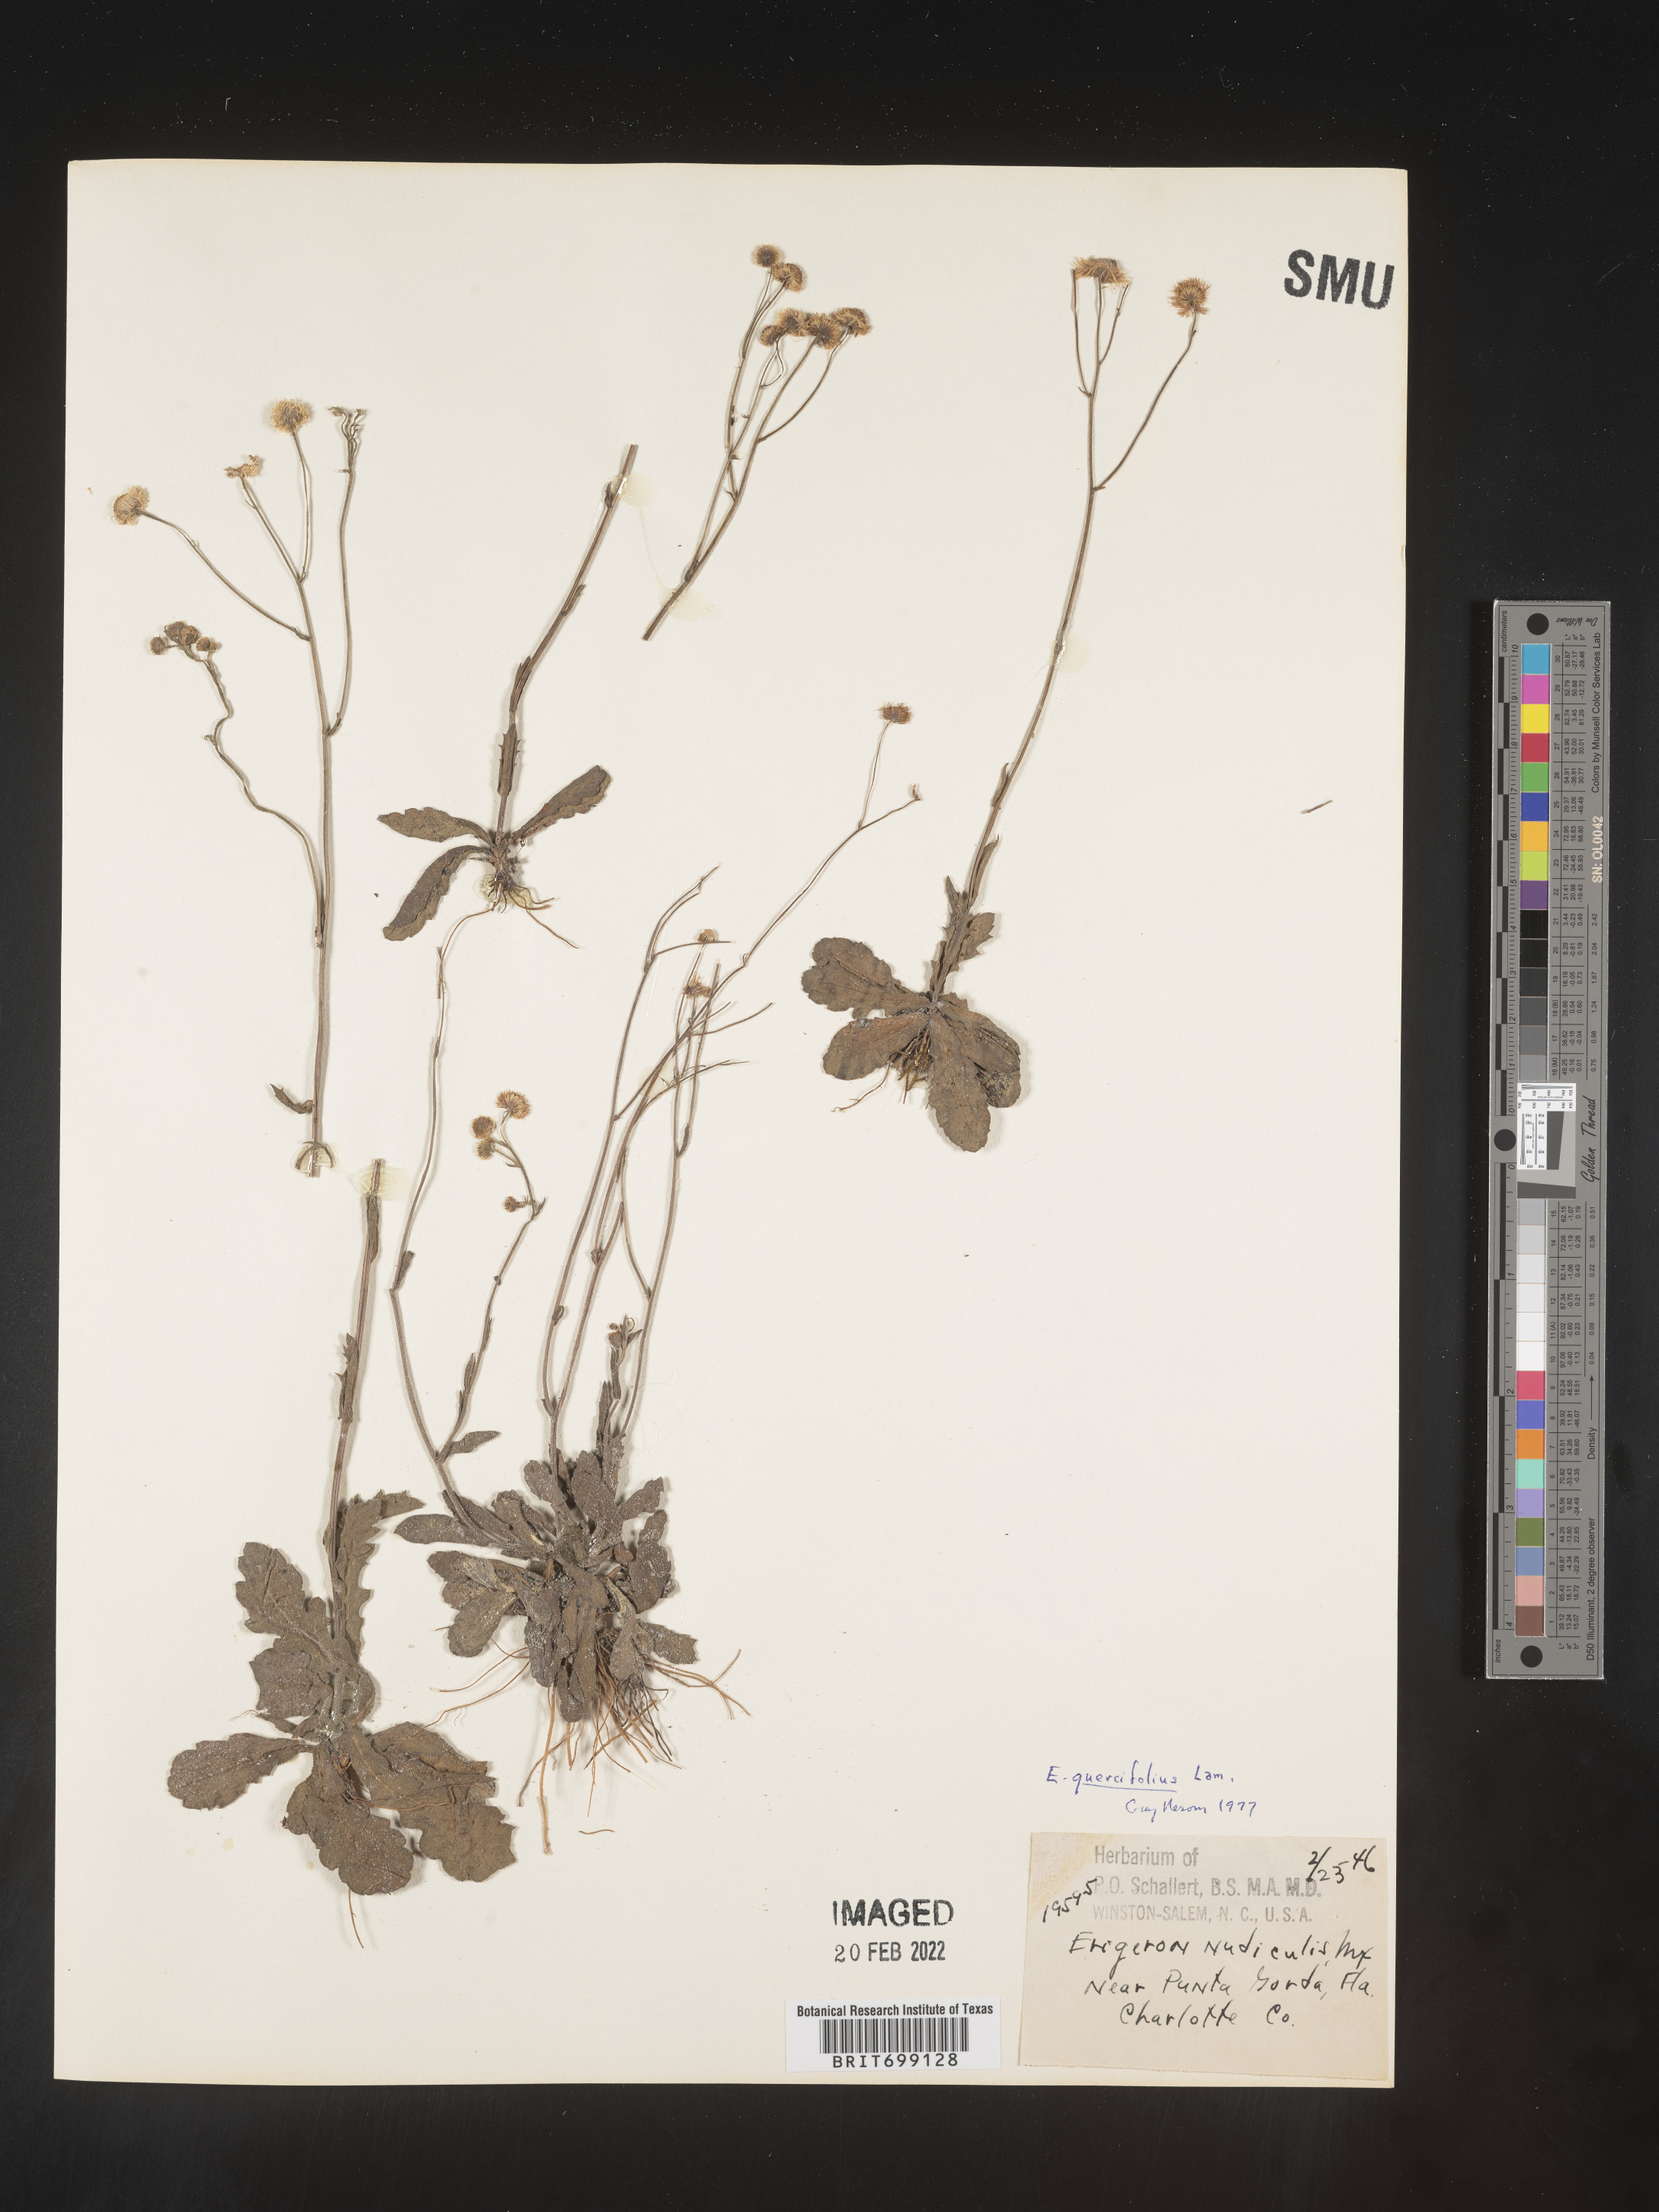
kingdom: Plantae
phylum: Tracheophyta
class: Magnoliopsida
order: Asterales
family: Asteraceae
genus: Erigeron
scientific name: Erigeron quercifolius
